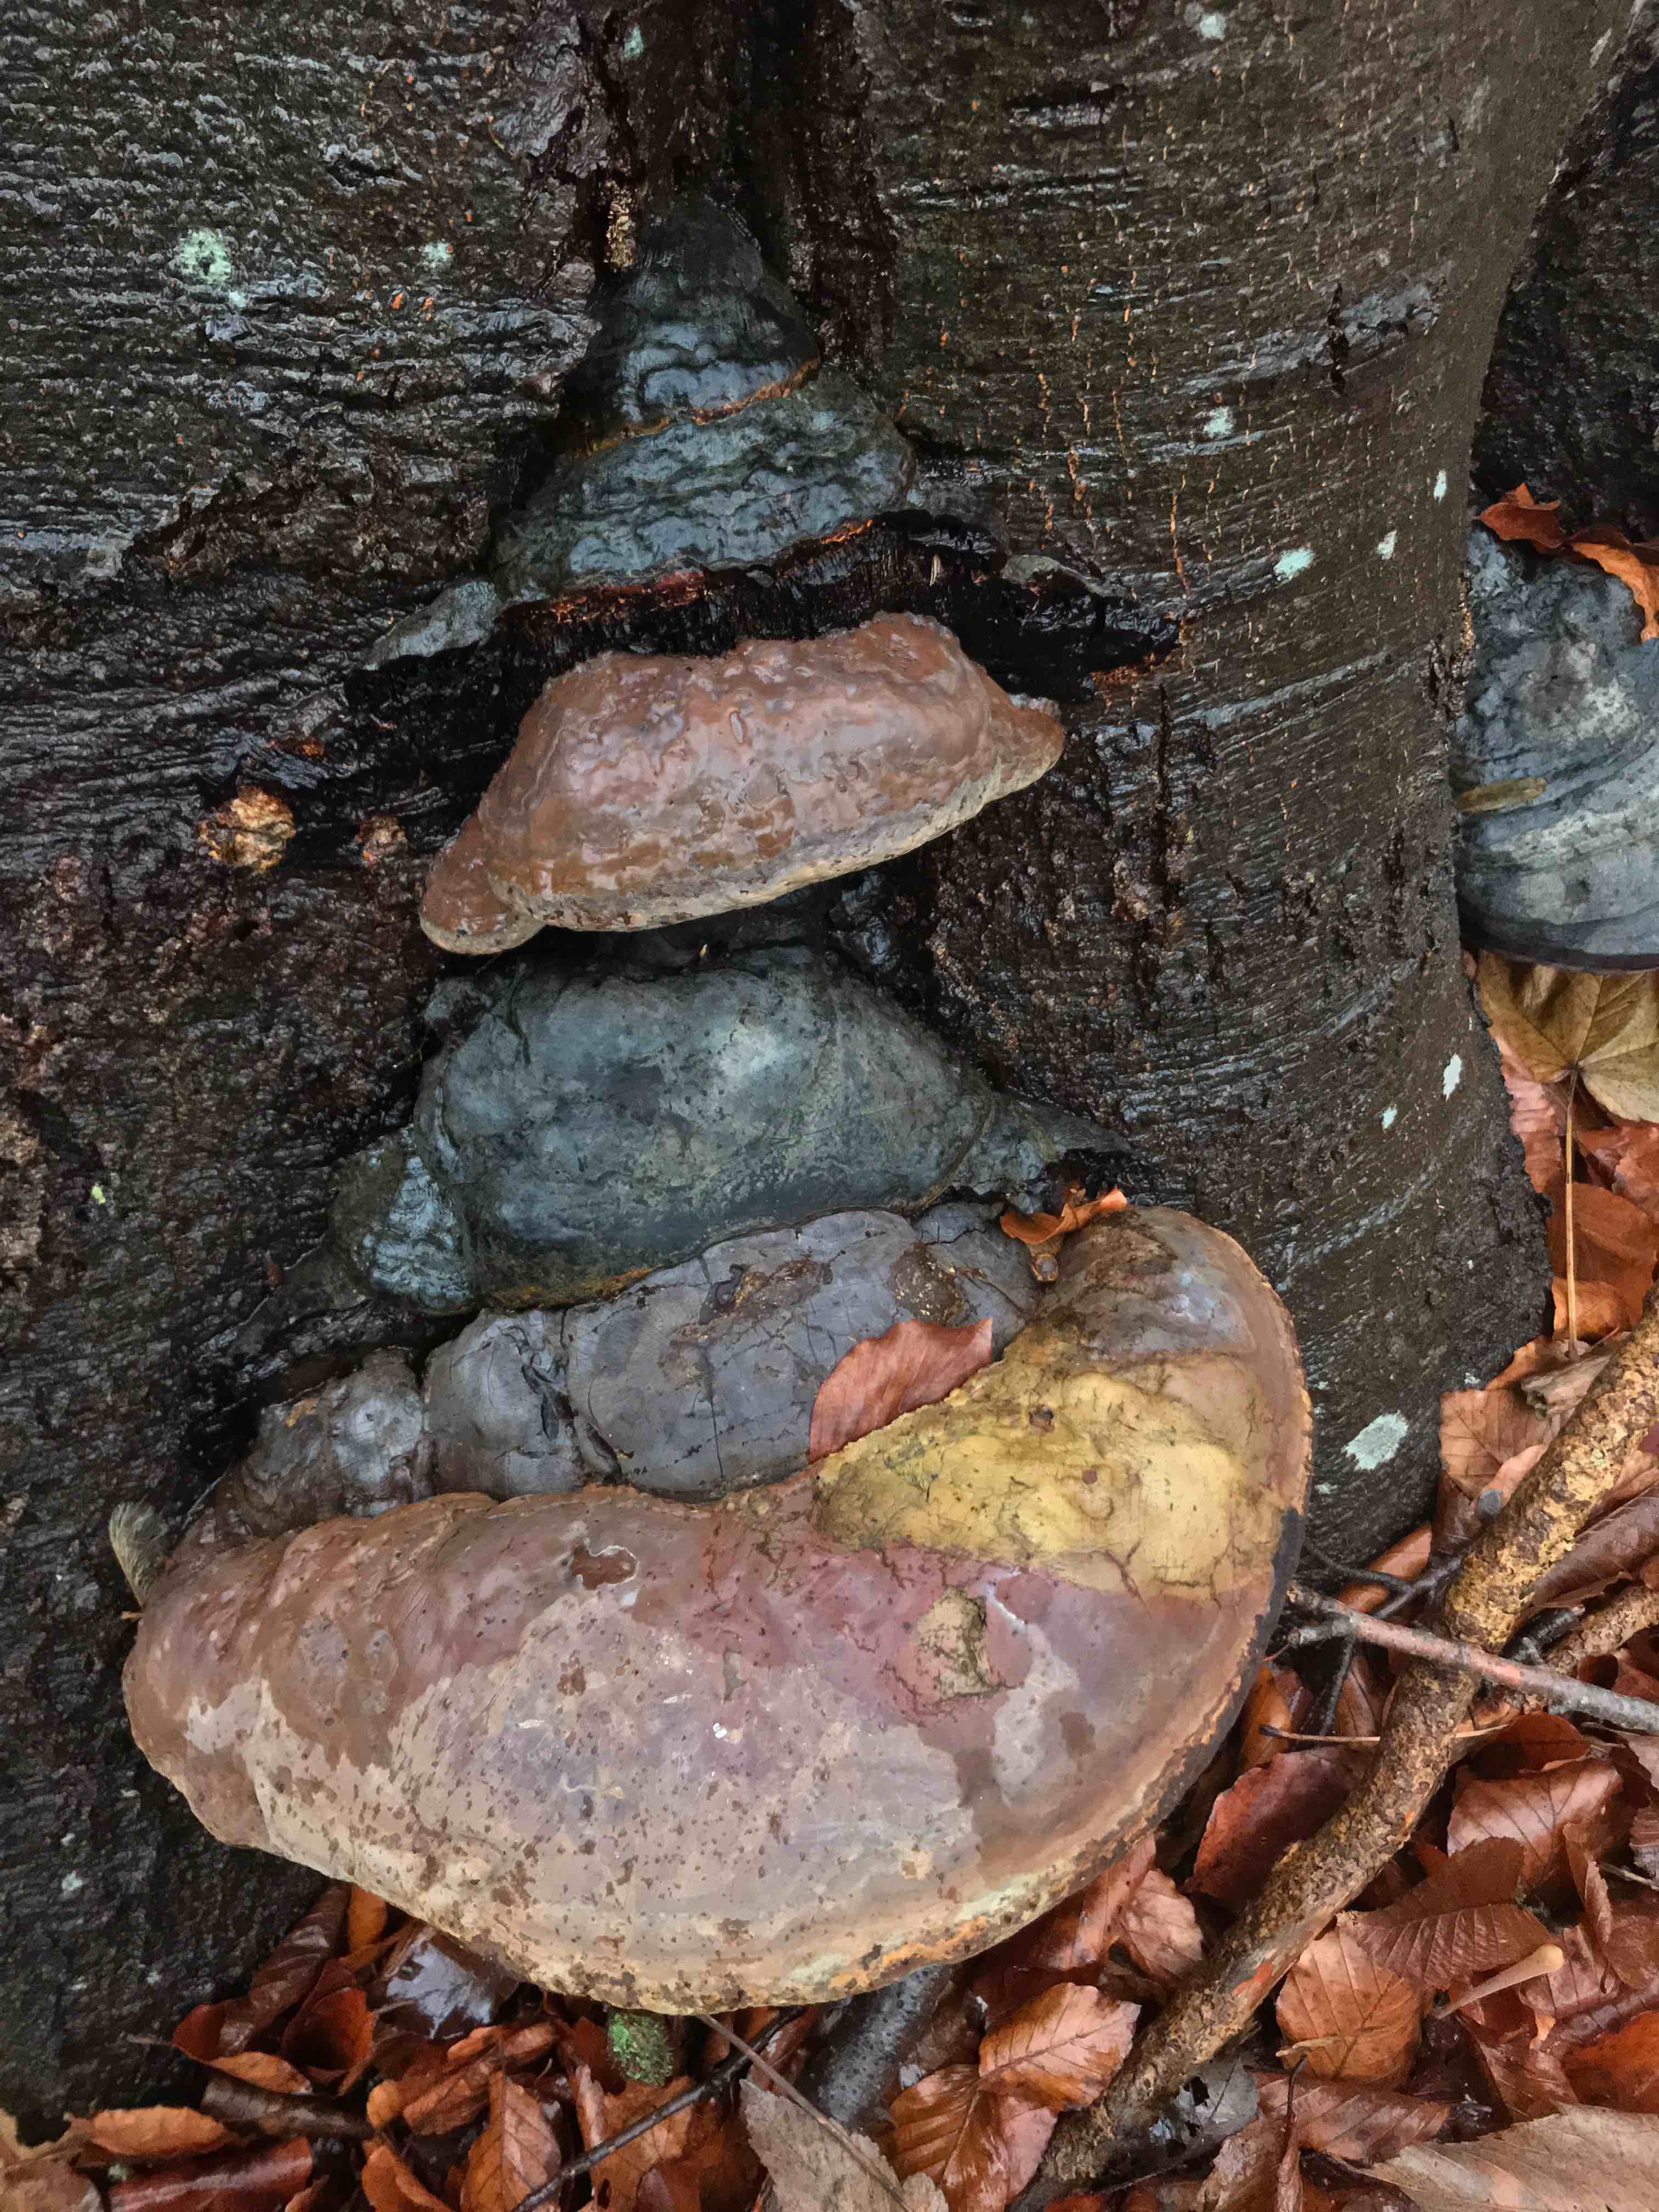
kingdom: Fungi
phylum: Basidiomycota
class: Agaricomycetes
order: Polyporales
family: Polyporaceae
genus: Ganoderma
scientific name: Ganoderma pfeifferi
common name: kobberrød lakporesvamp
